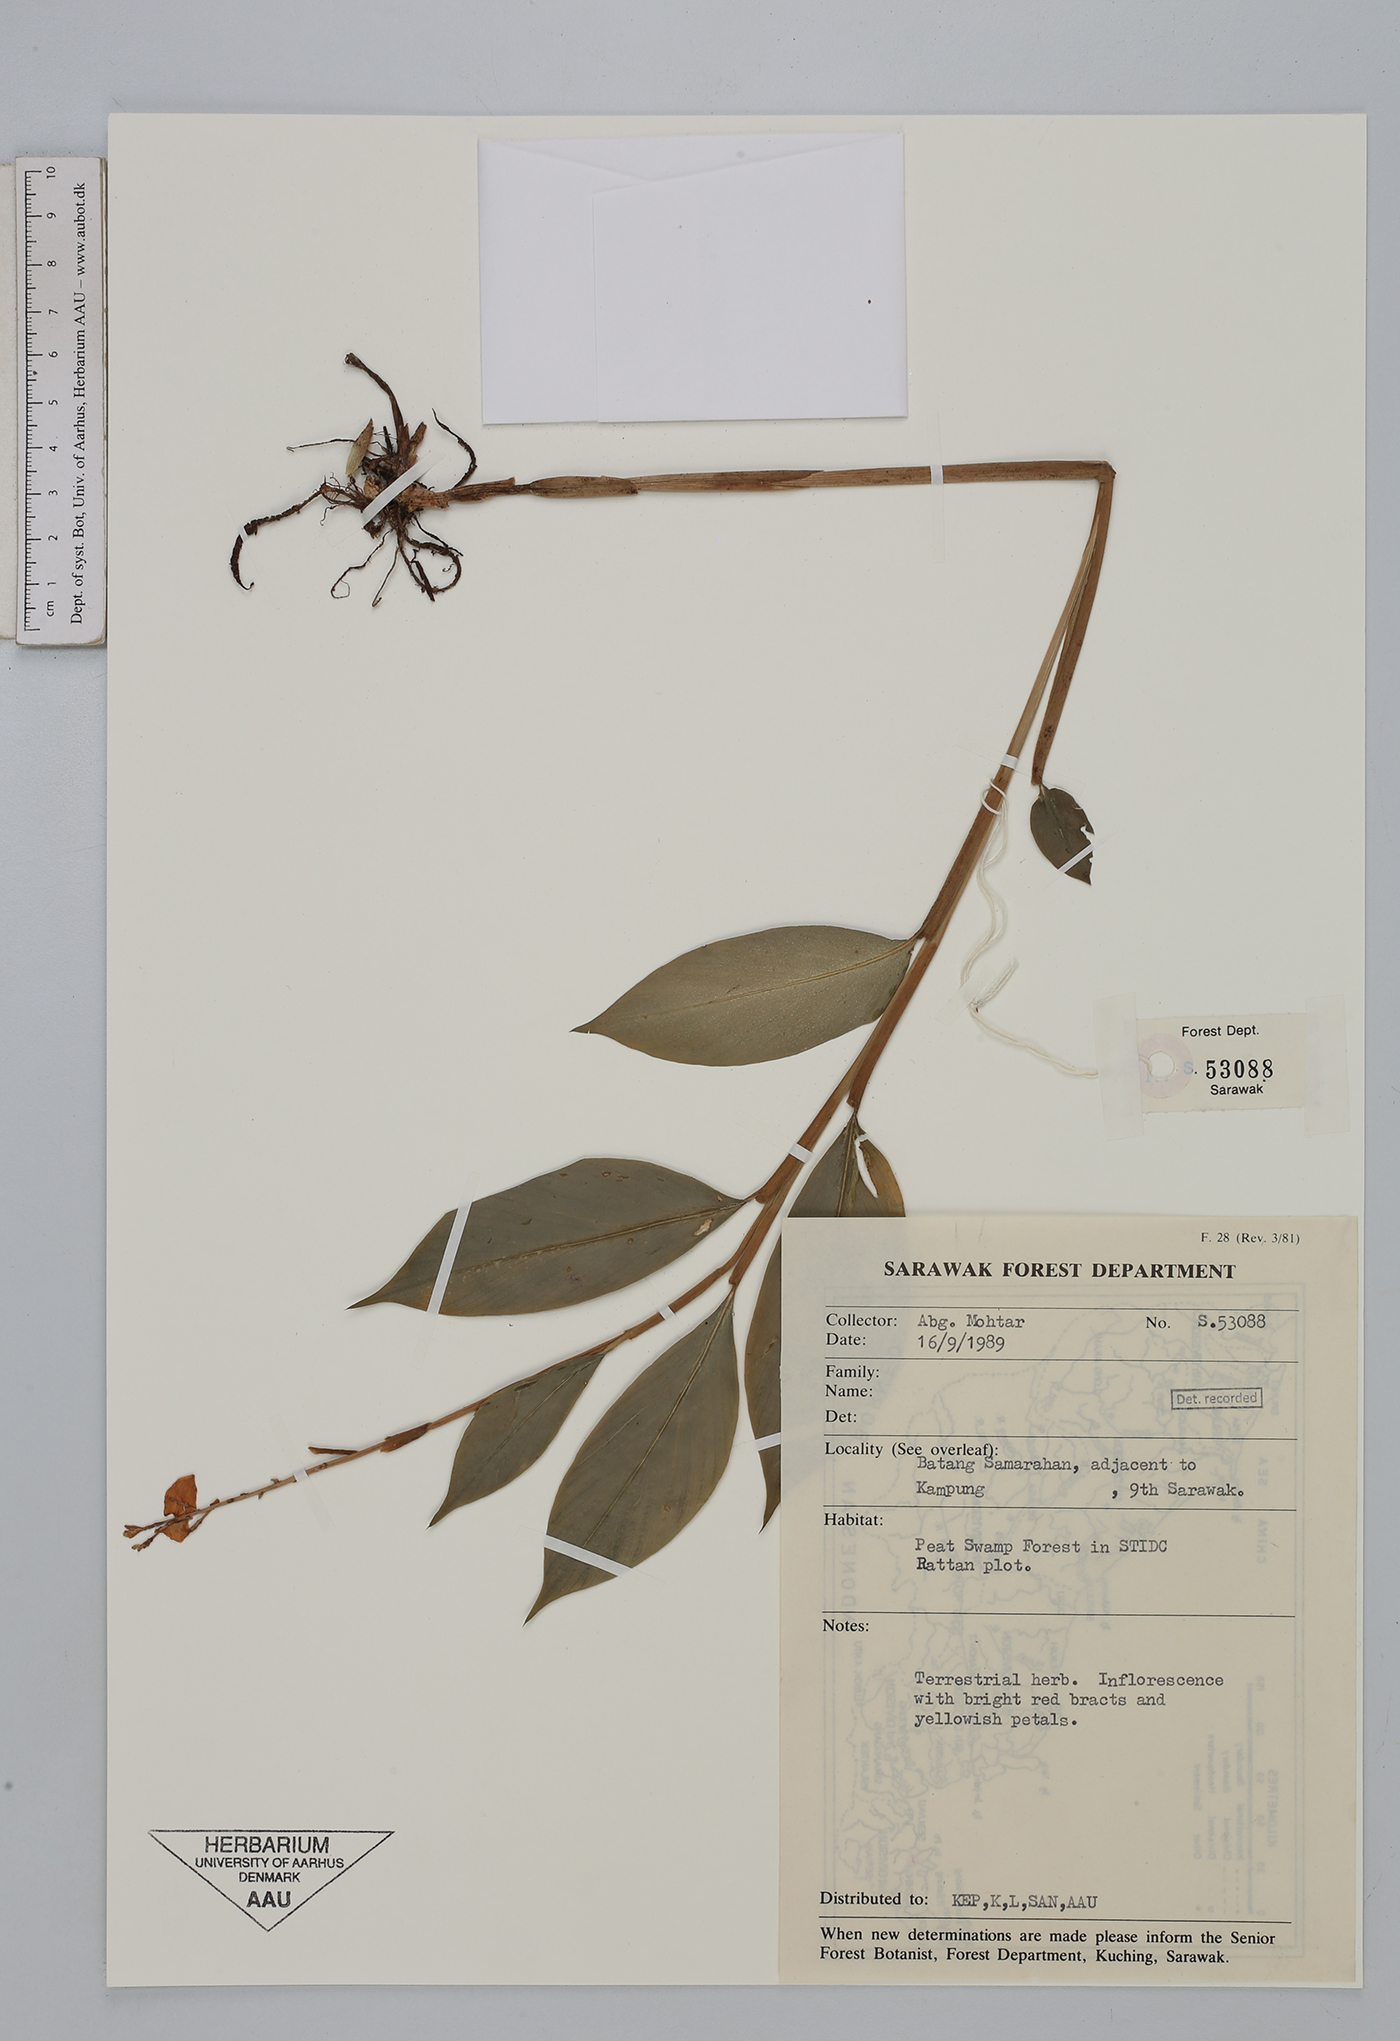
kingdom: Plantae
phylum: Tracheophyta
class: Liliopsida
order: Zingiberales
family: Zingiberaceae
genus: Globba
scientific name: Globba
